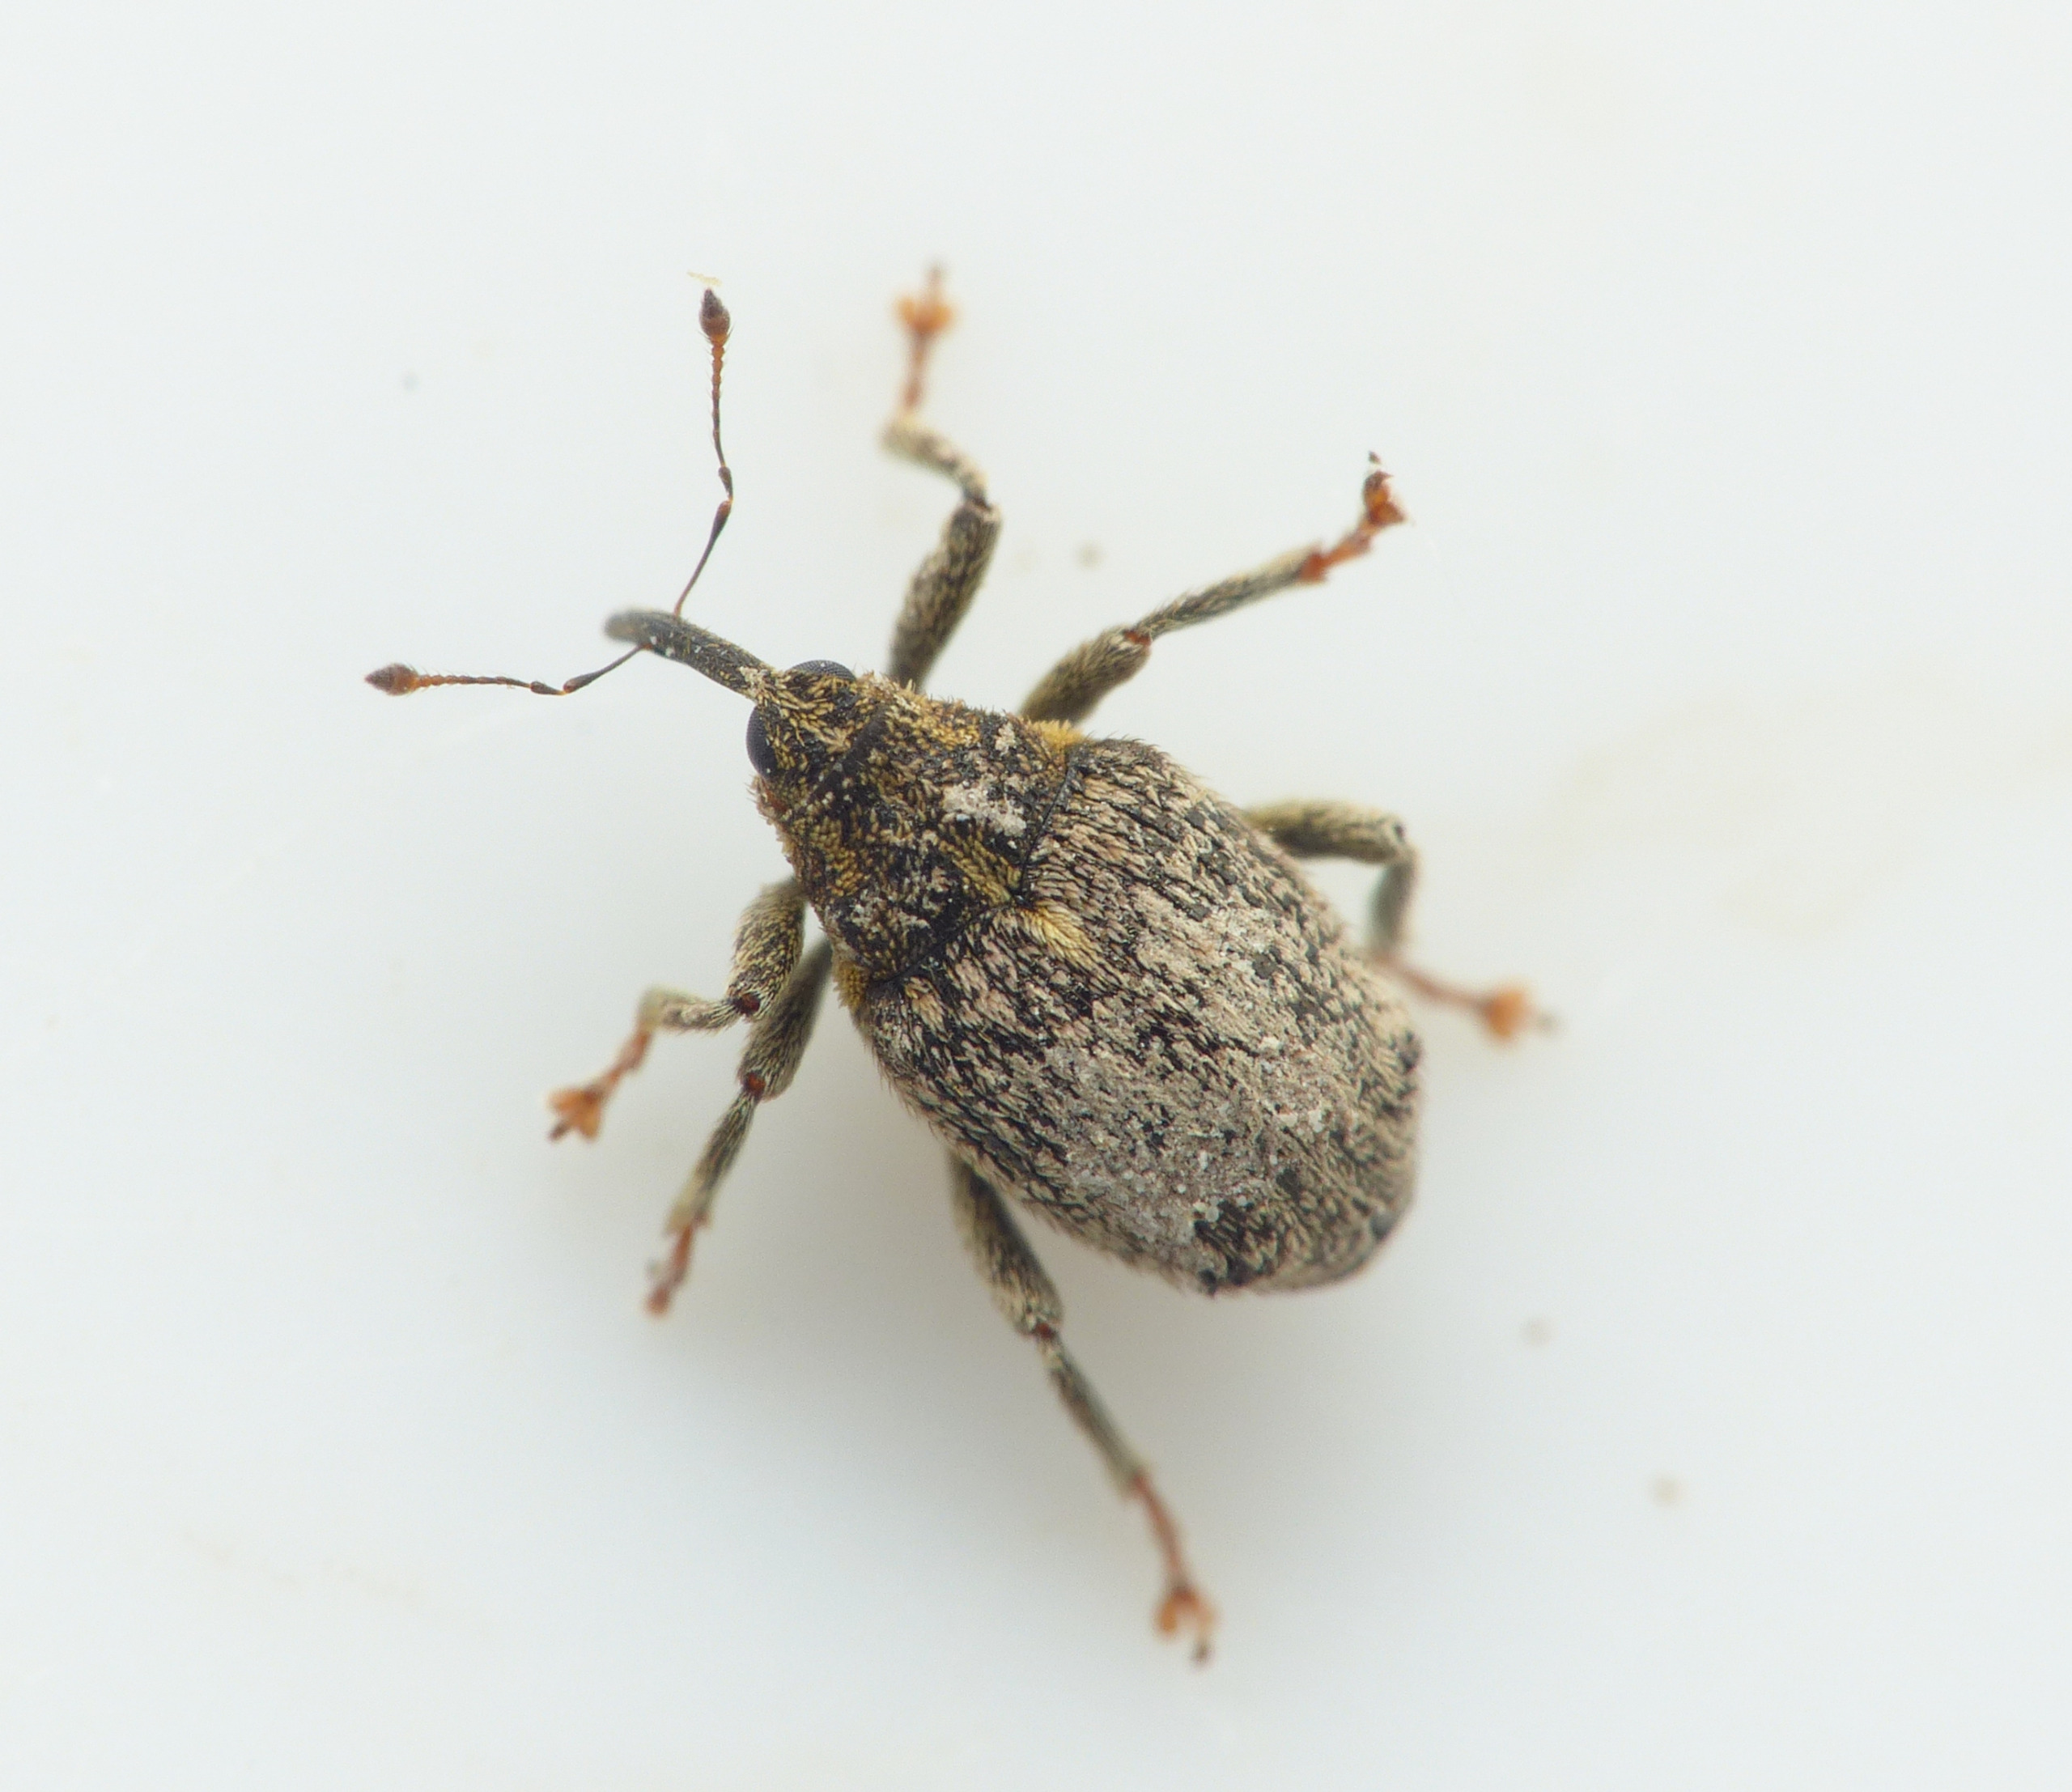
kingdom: Animalia
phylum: Arthropoda
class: Insecta
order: Coleoptera
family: Curculionidae
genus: Ceutorhynchus
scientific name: Ceutorhynchus pallidactylus
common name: Bladribbesnudebille
